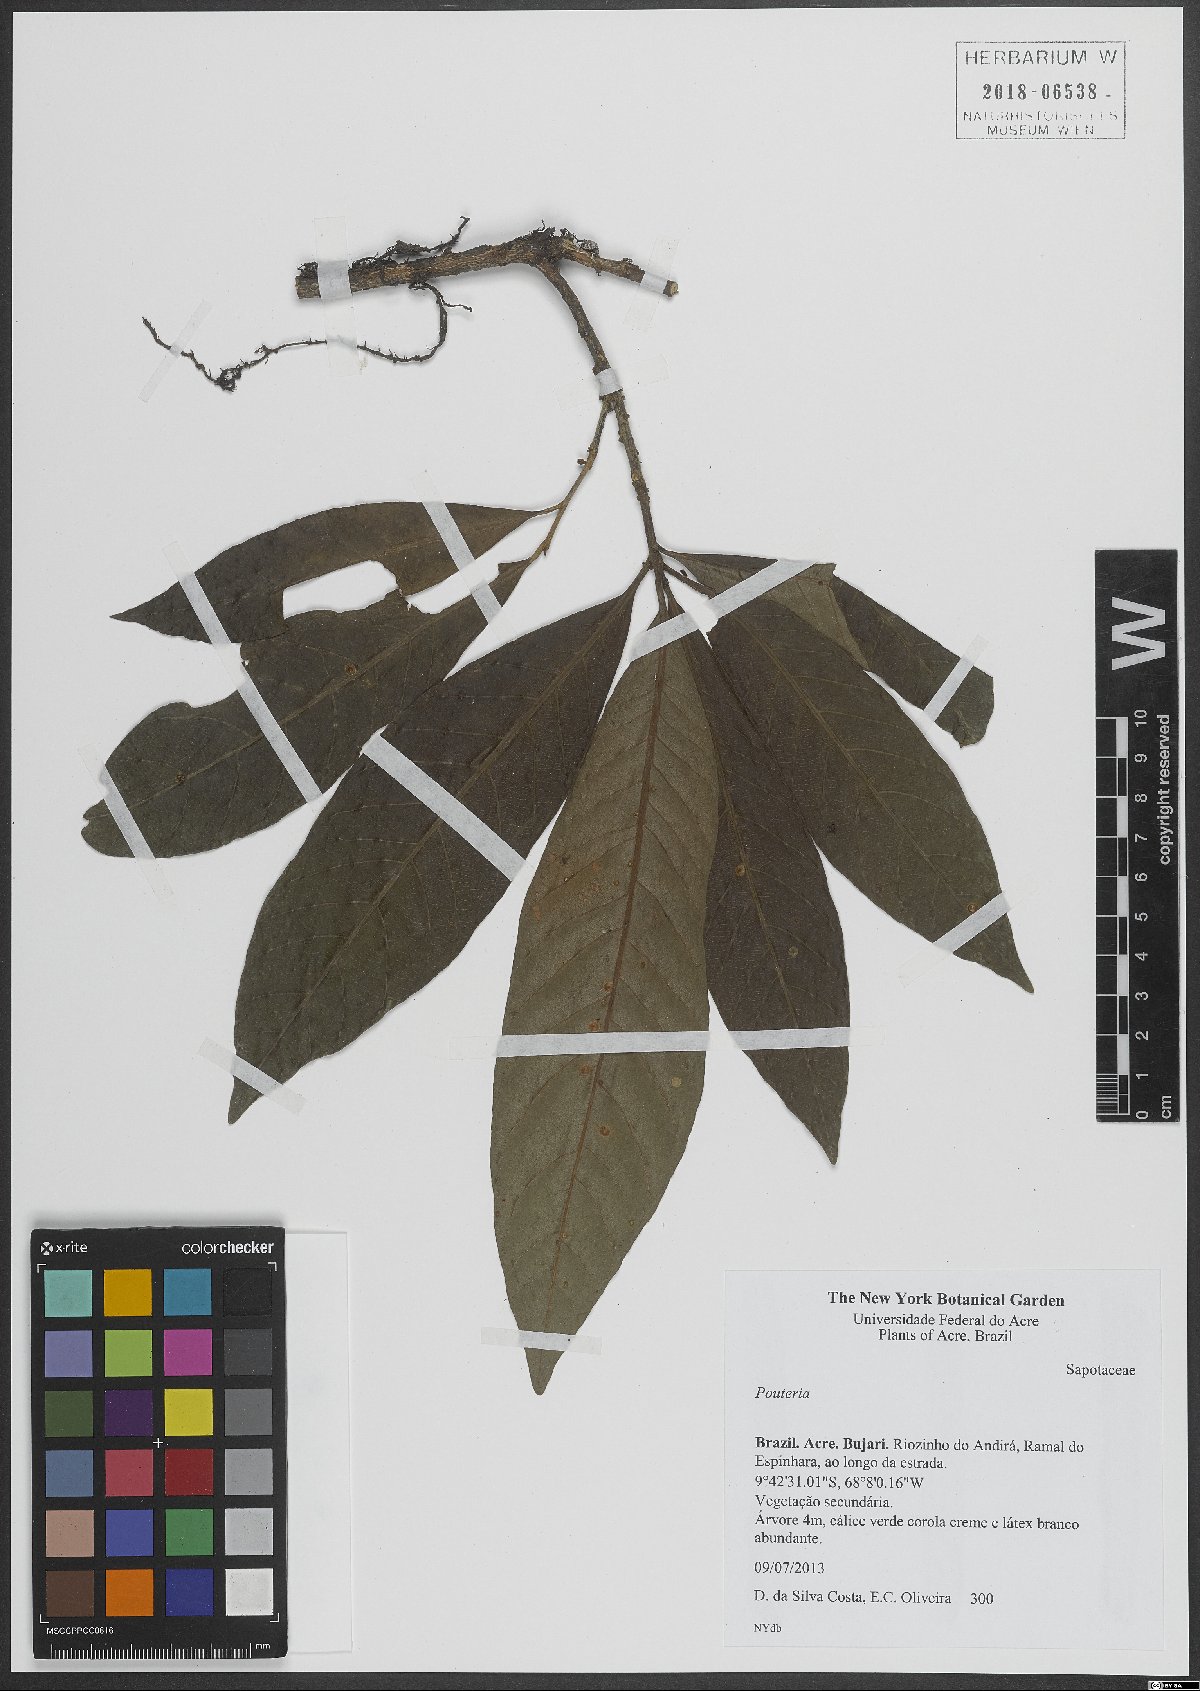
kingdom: Plantae
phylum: Tracheophyta
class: Magnoliopsida
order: Ericales
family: Sapotaceae
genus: Pouteria
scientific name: Pouteria
